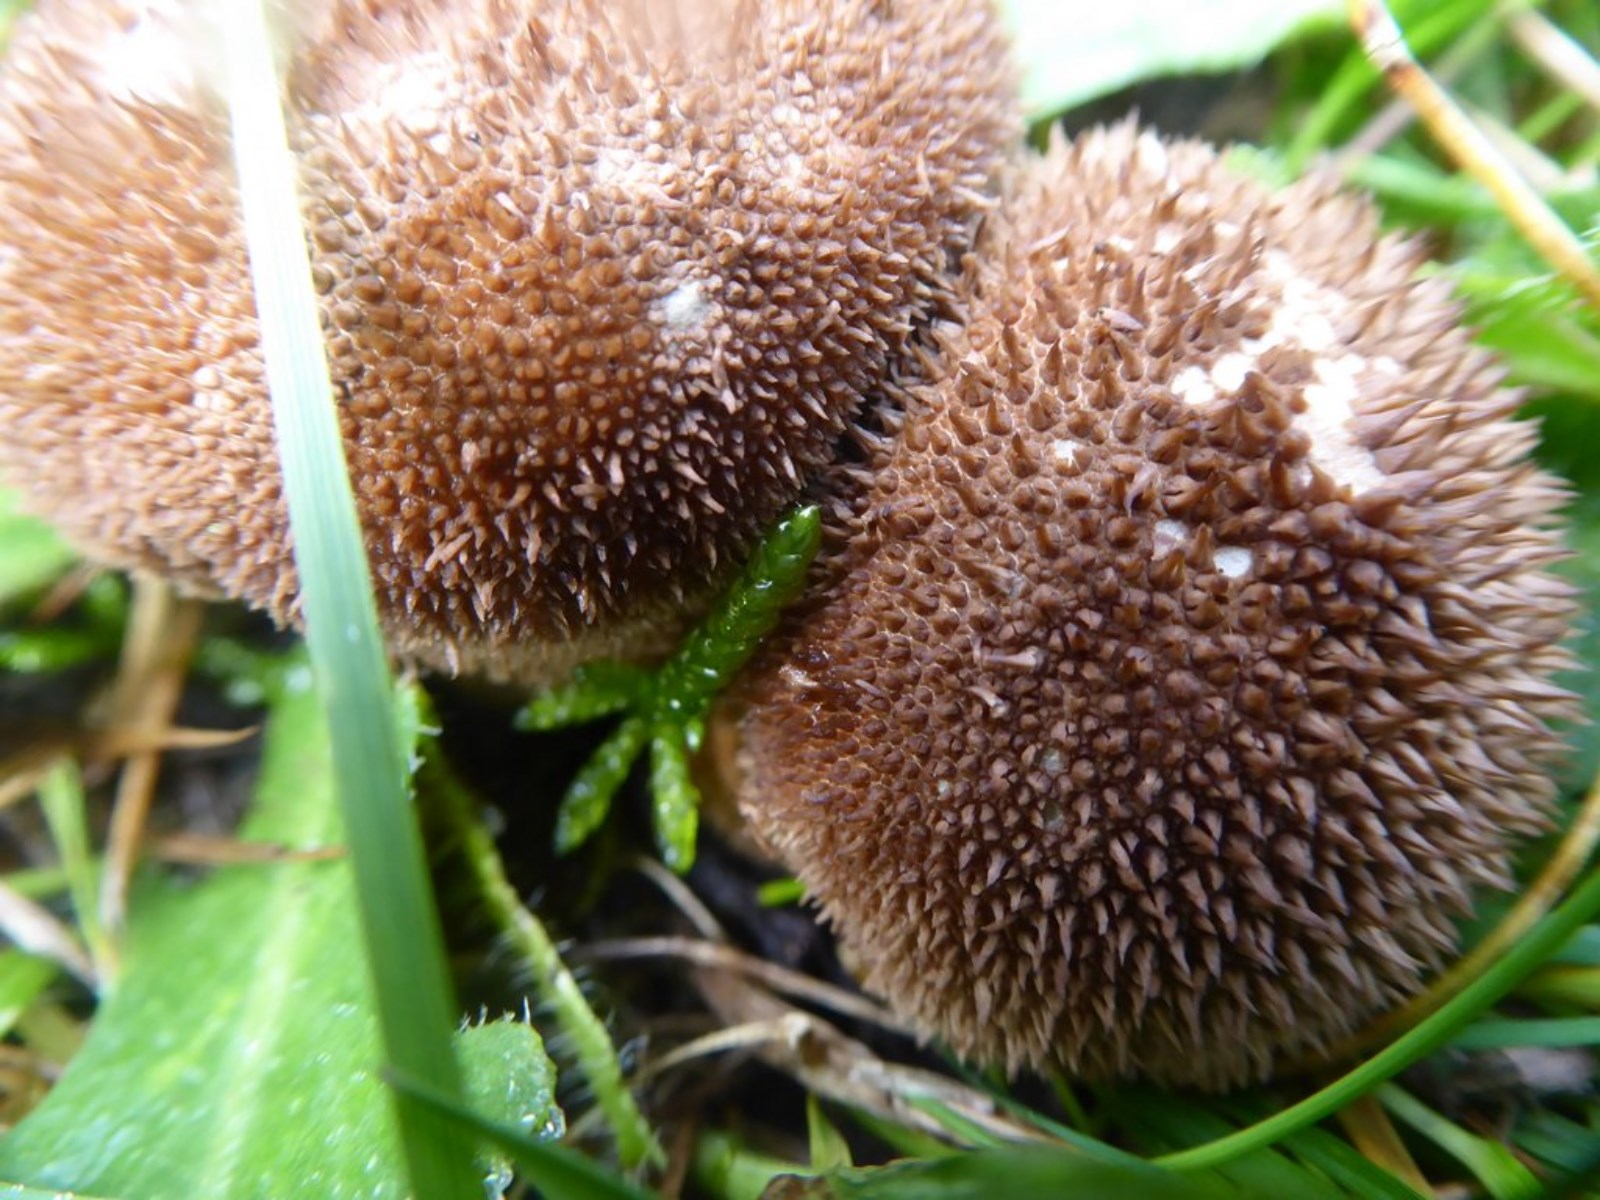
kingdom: Fungi
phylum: Basidiomycota
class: Agaricomycetes
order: Agaricales
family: Lycoperdaceae
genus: Lycoperdon
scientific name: Lycoperdon nigrescens
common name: sortagtig støvbold
